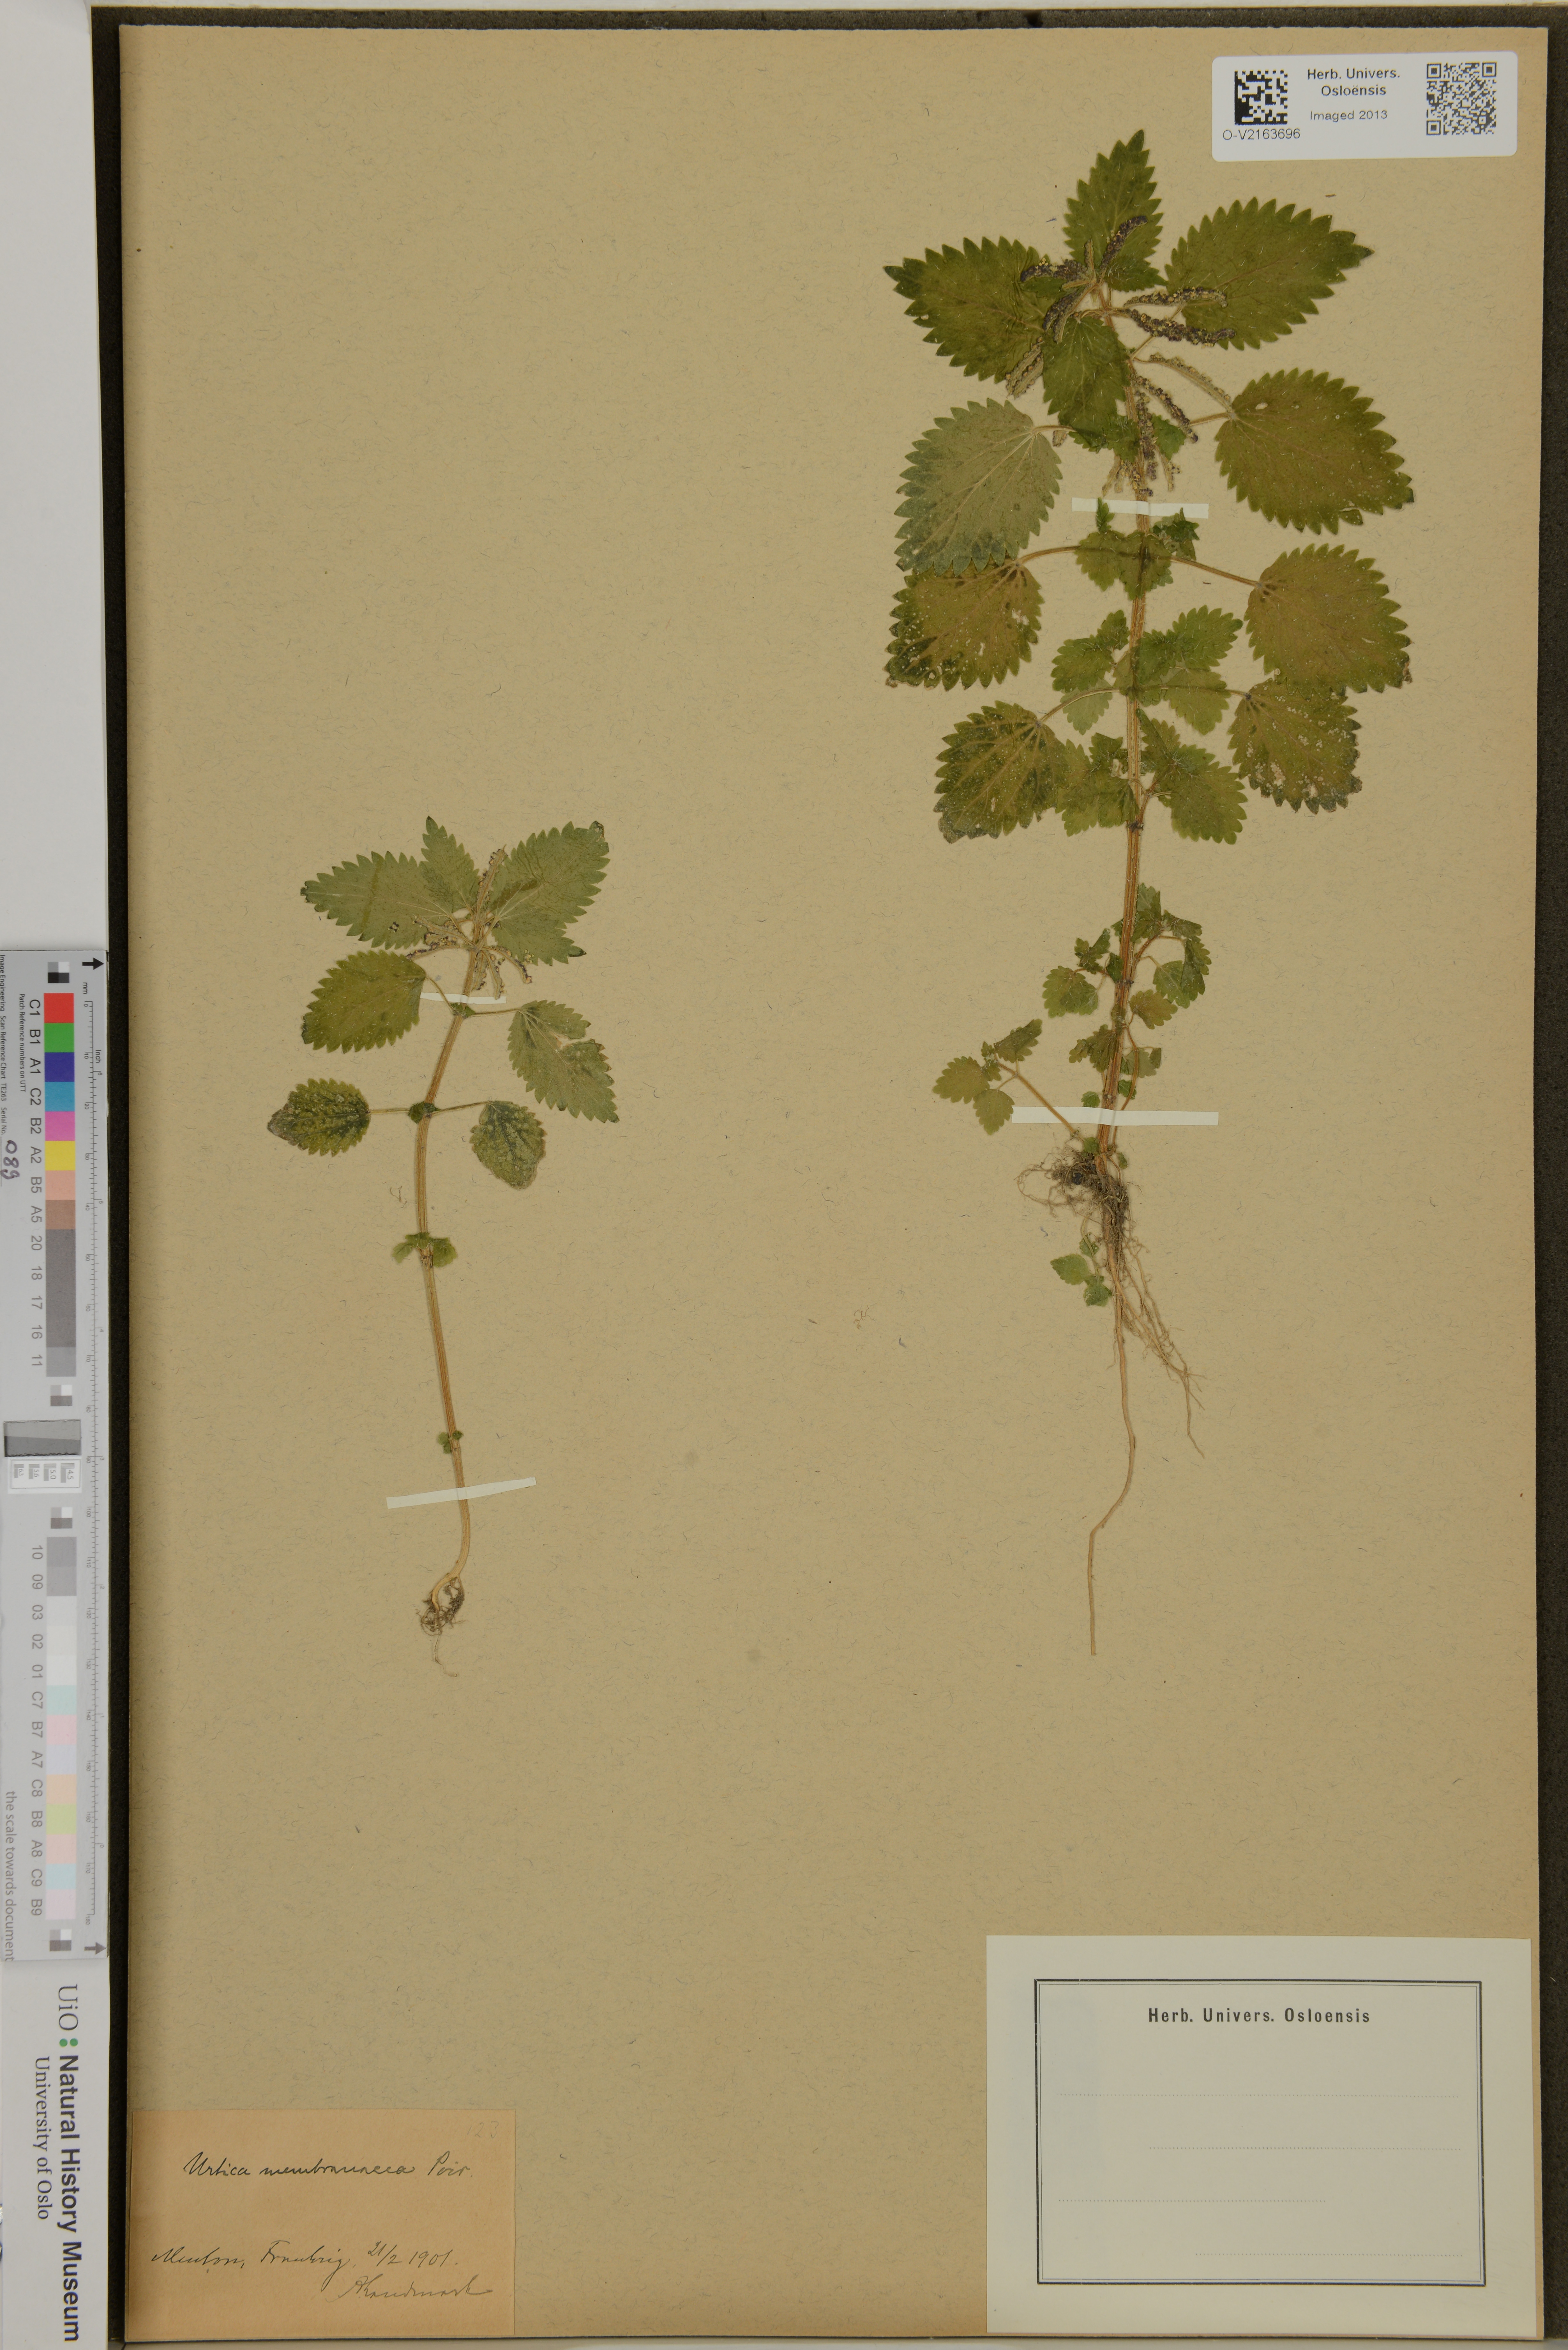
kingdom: Plantae
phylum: Tracheophyta
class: Magnoliopsida
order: Rosales
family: Urticaceae
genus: Urtica
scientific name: Urtica membranacea
